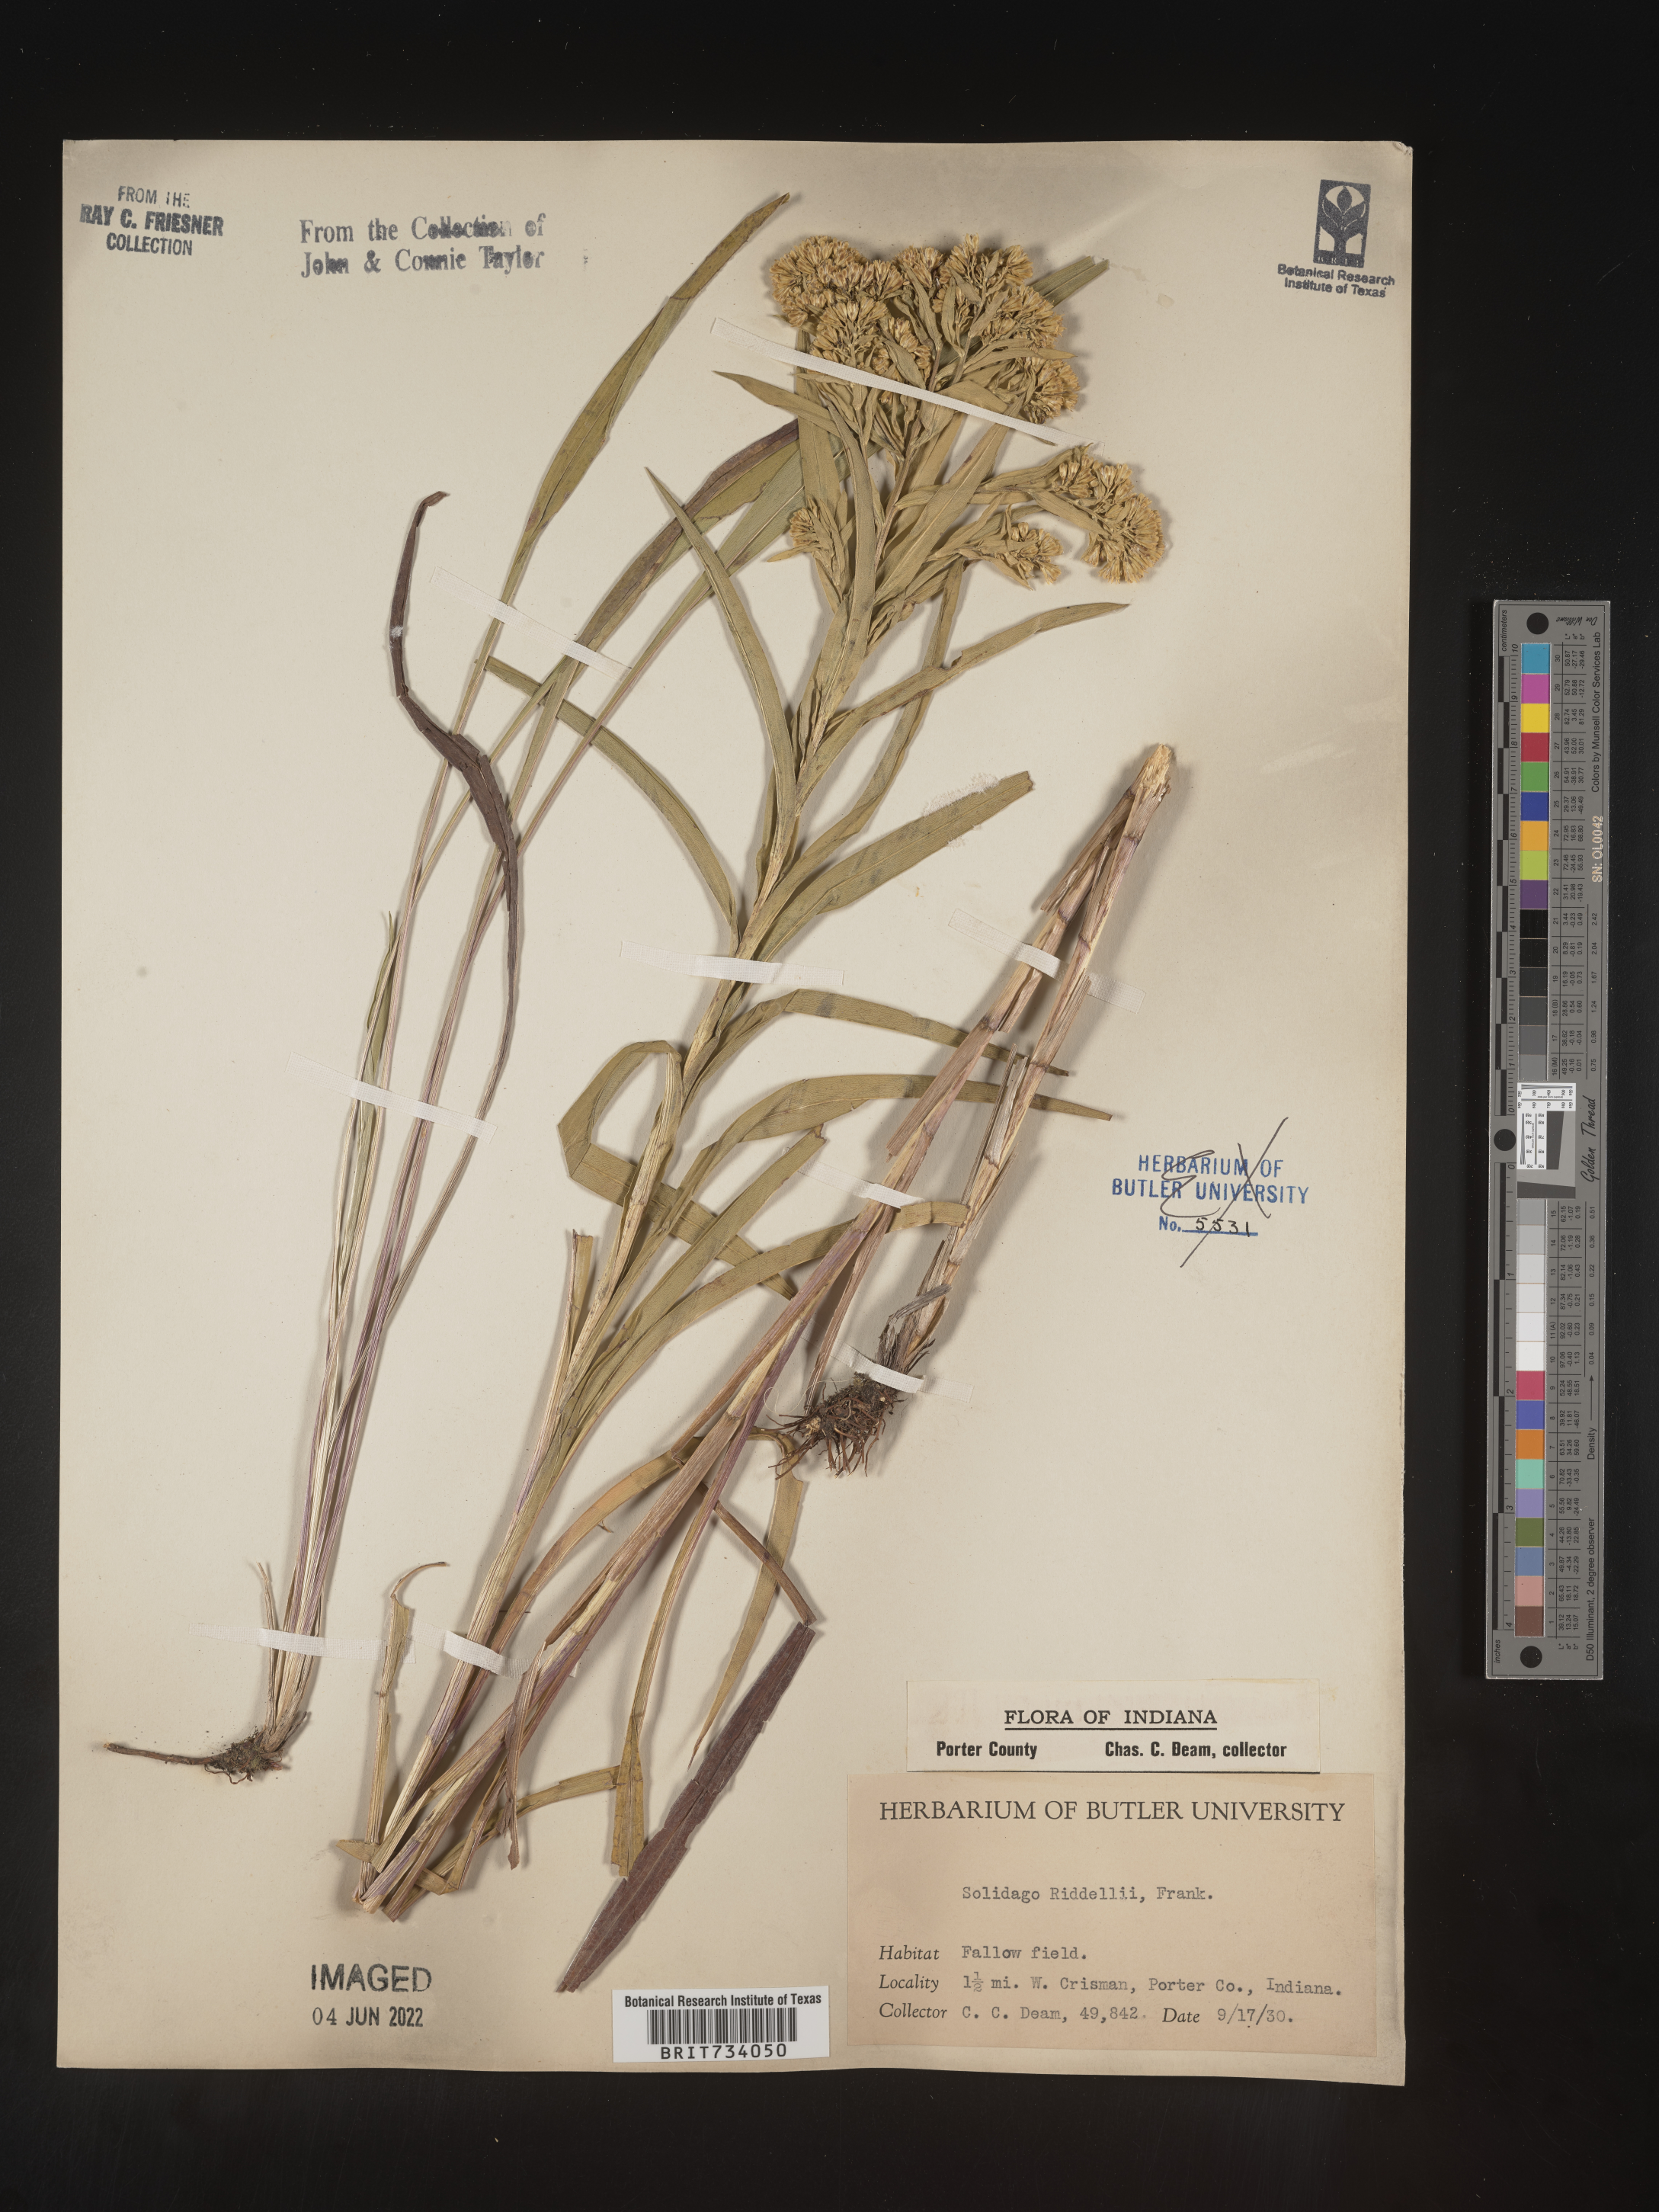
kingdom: Plantae
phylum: Tracheophyta
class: Magnoliopsida
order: Asterales
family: Asteraceae
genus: Solidago
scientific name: Solidago riddellii
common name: Riddell's goldenrod
